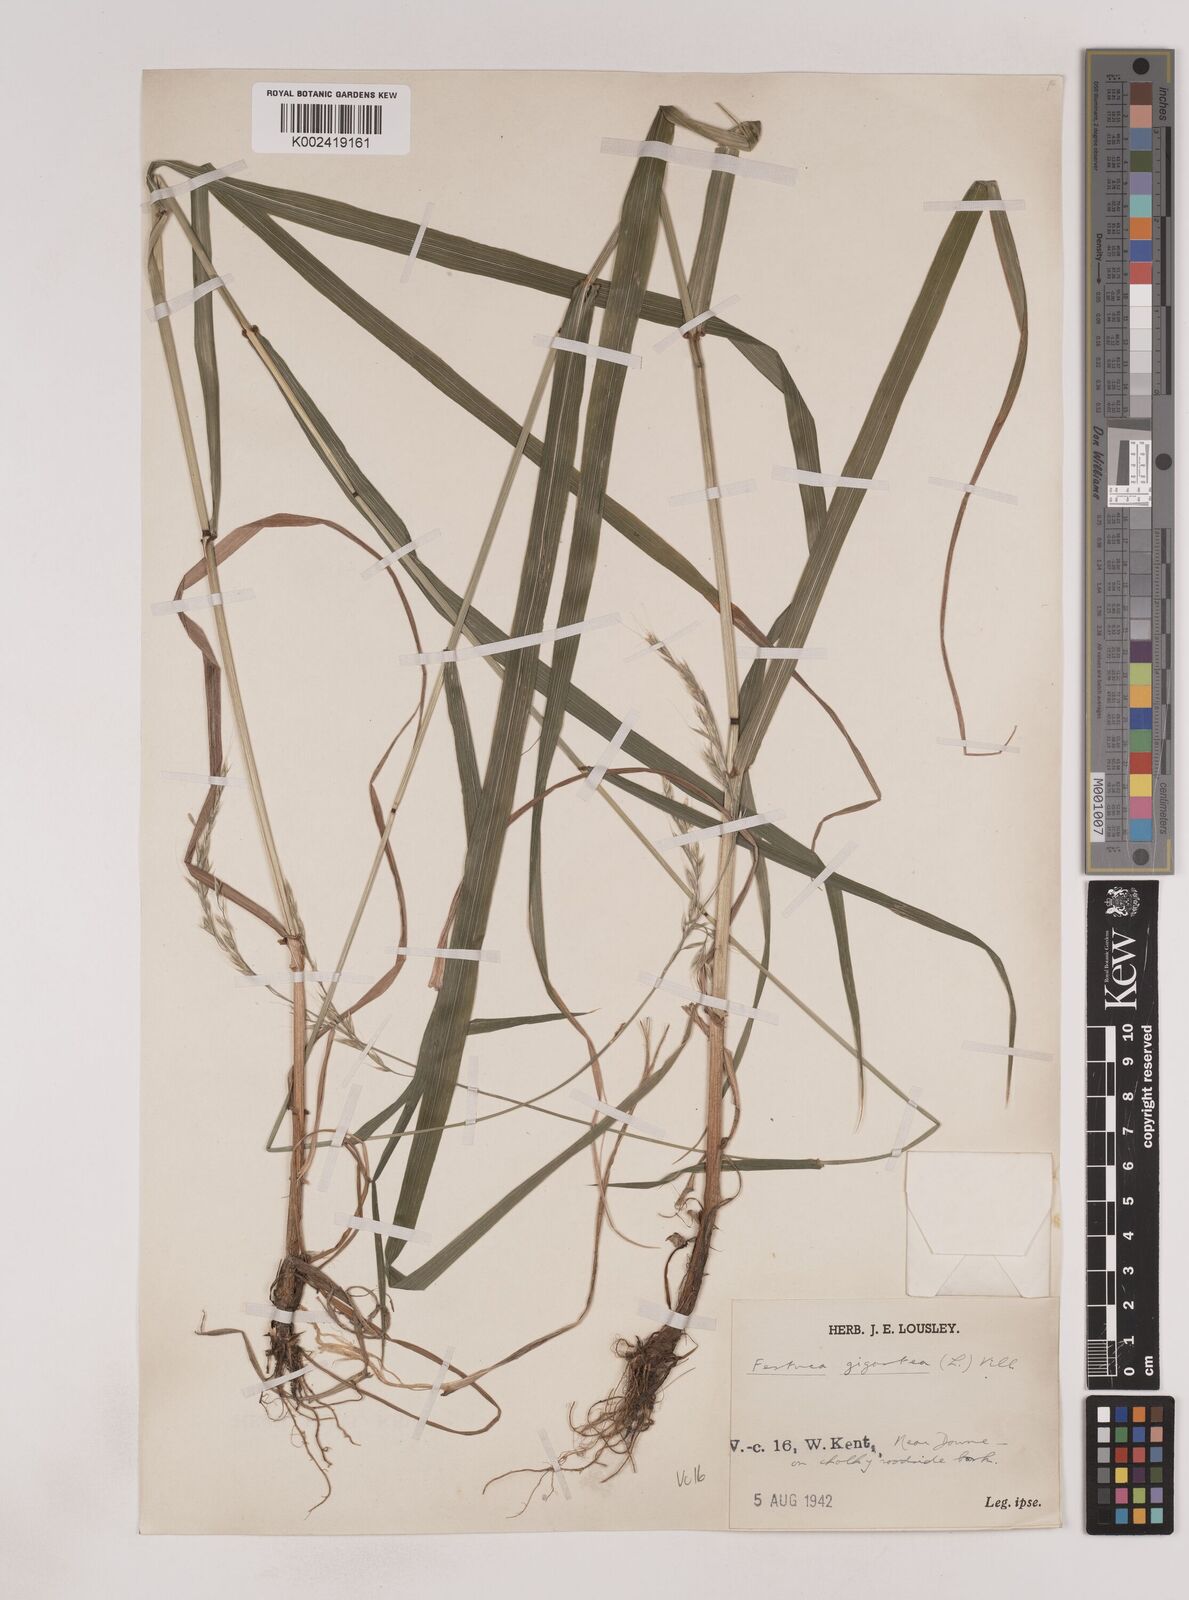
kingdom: Plantae
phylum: Tracheophyta
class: Liliopsida
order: Poales
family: Poaceae
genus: Lolium
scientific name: Lolium giganteum
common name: Giant fescue
